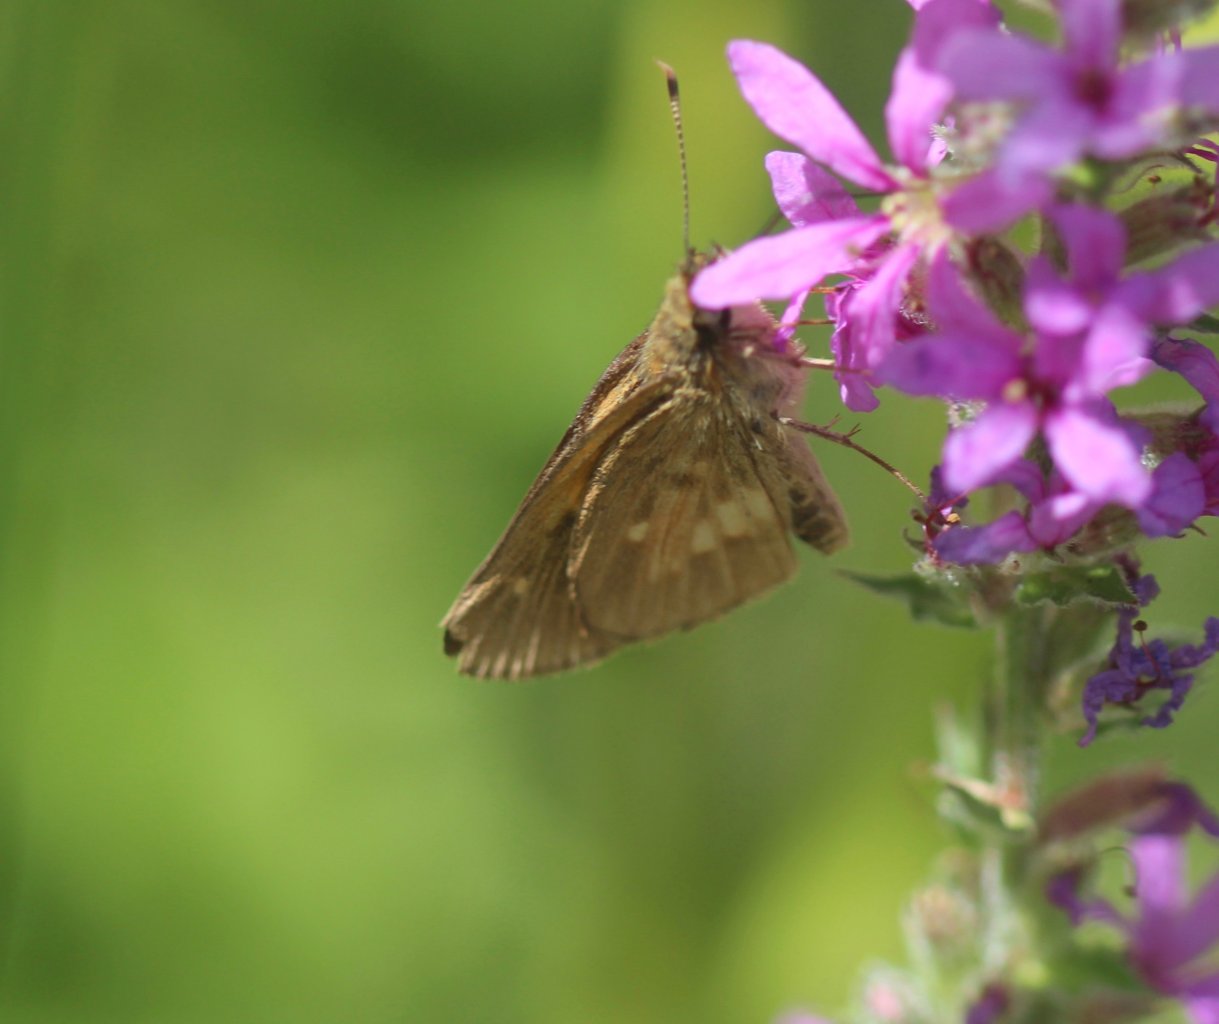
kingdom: Animalia
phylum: Arthropoda
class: Insecta
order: Lepidoptera
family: Hesperiidae
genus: Poanes
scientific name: Poanes viator
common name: Broad-winged Skipper
